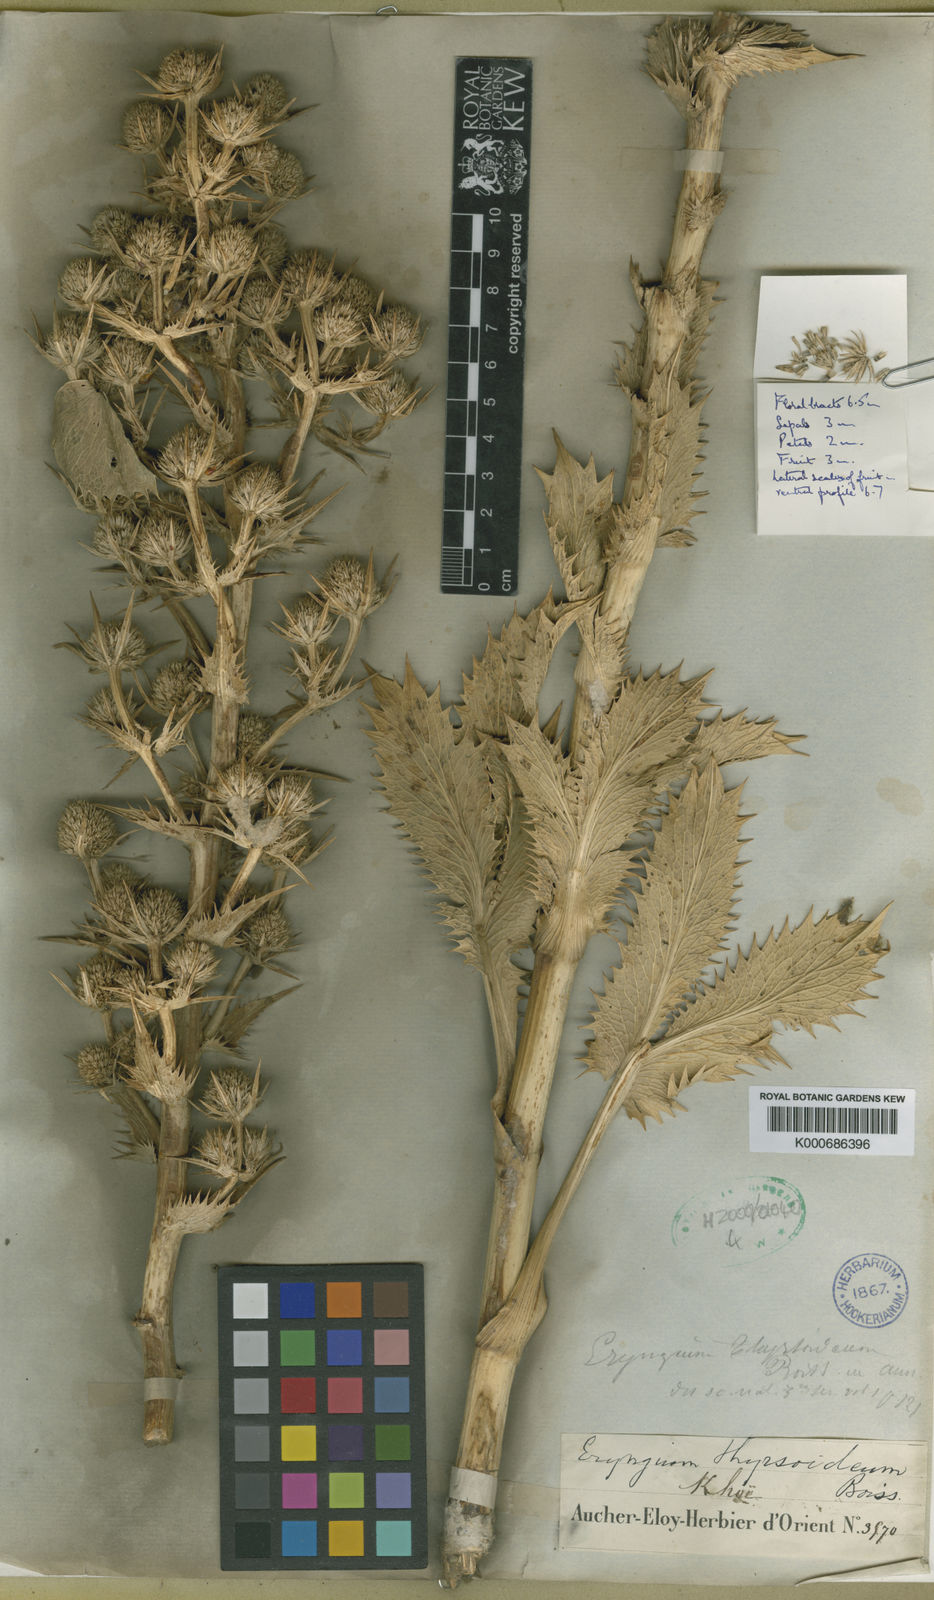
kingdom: Plantae
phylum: Tracheophyta
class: Magnoliopsida
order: Apiales
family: Apiaceae
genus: Eryngium
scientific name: Eryngium thyrsoideum
